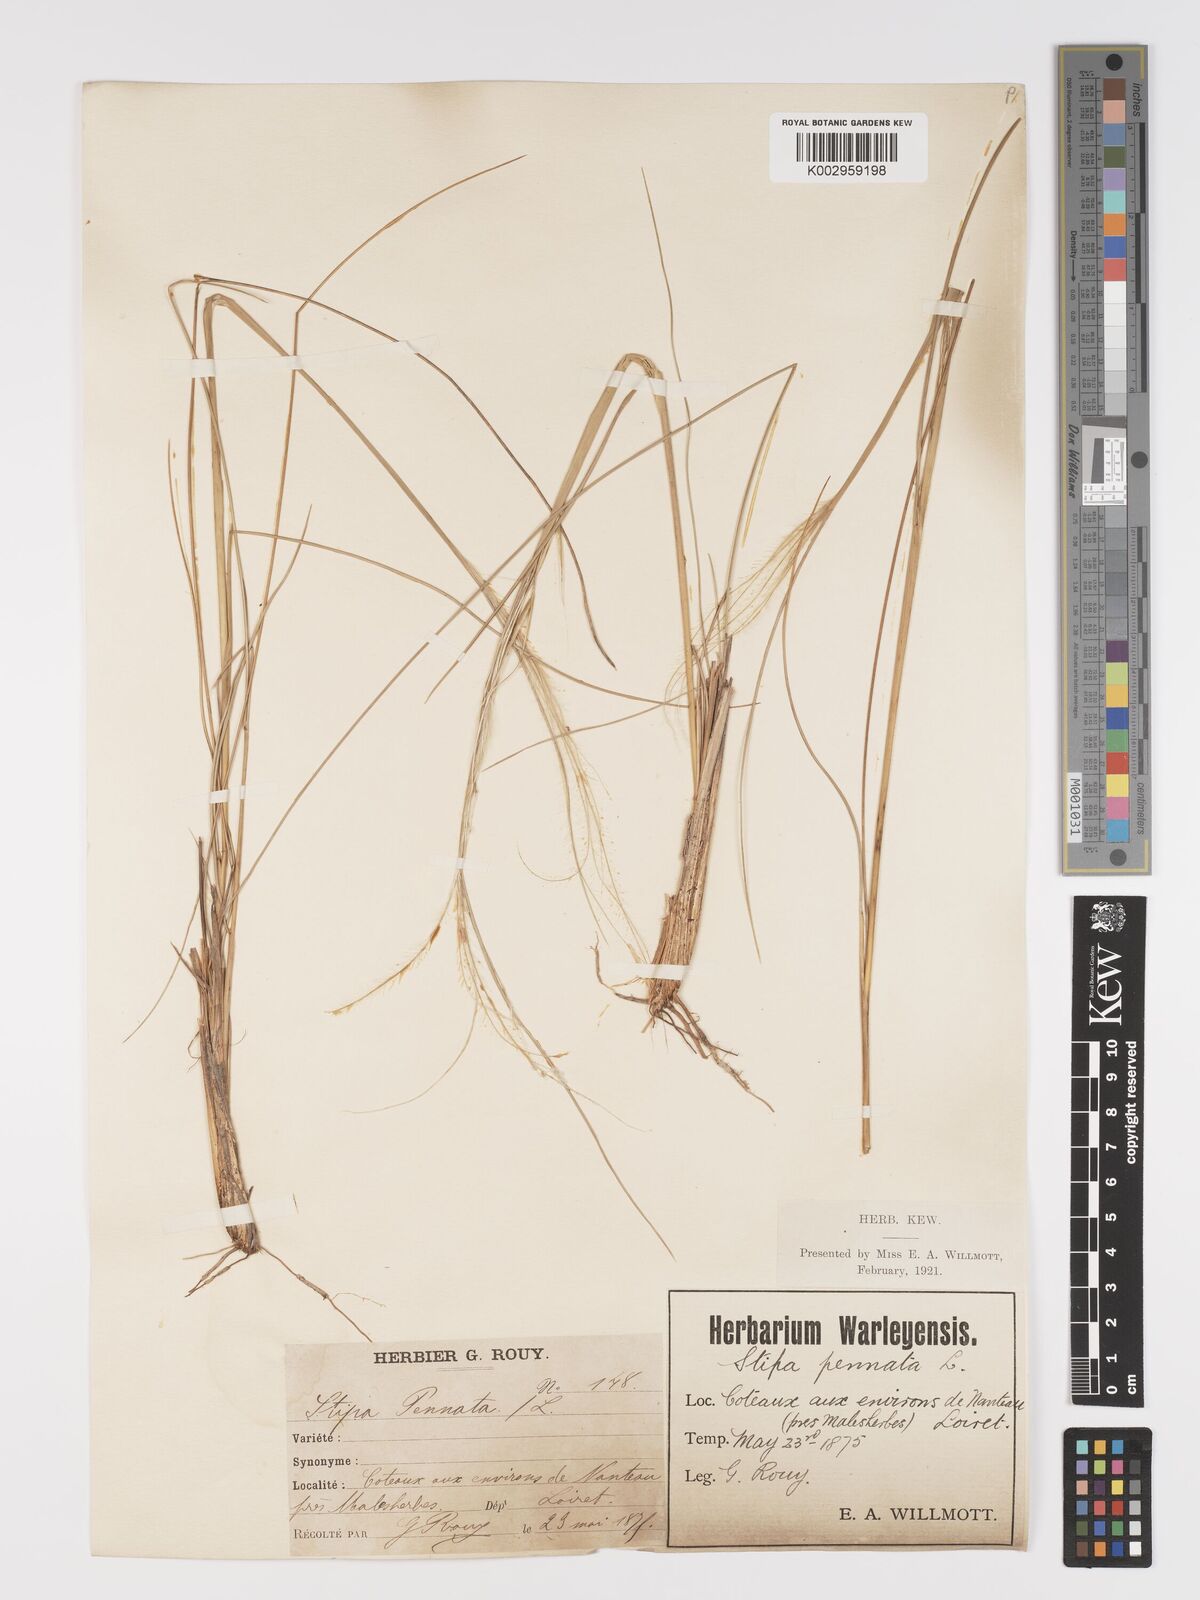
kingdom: Plantae
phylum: Tracheophyta
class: Liliopsida
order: Poales
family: Poaceae
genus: Stipa
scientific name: Stipa pennata
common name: European feather grass
